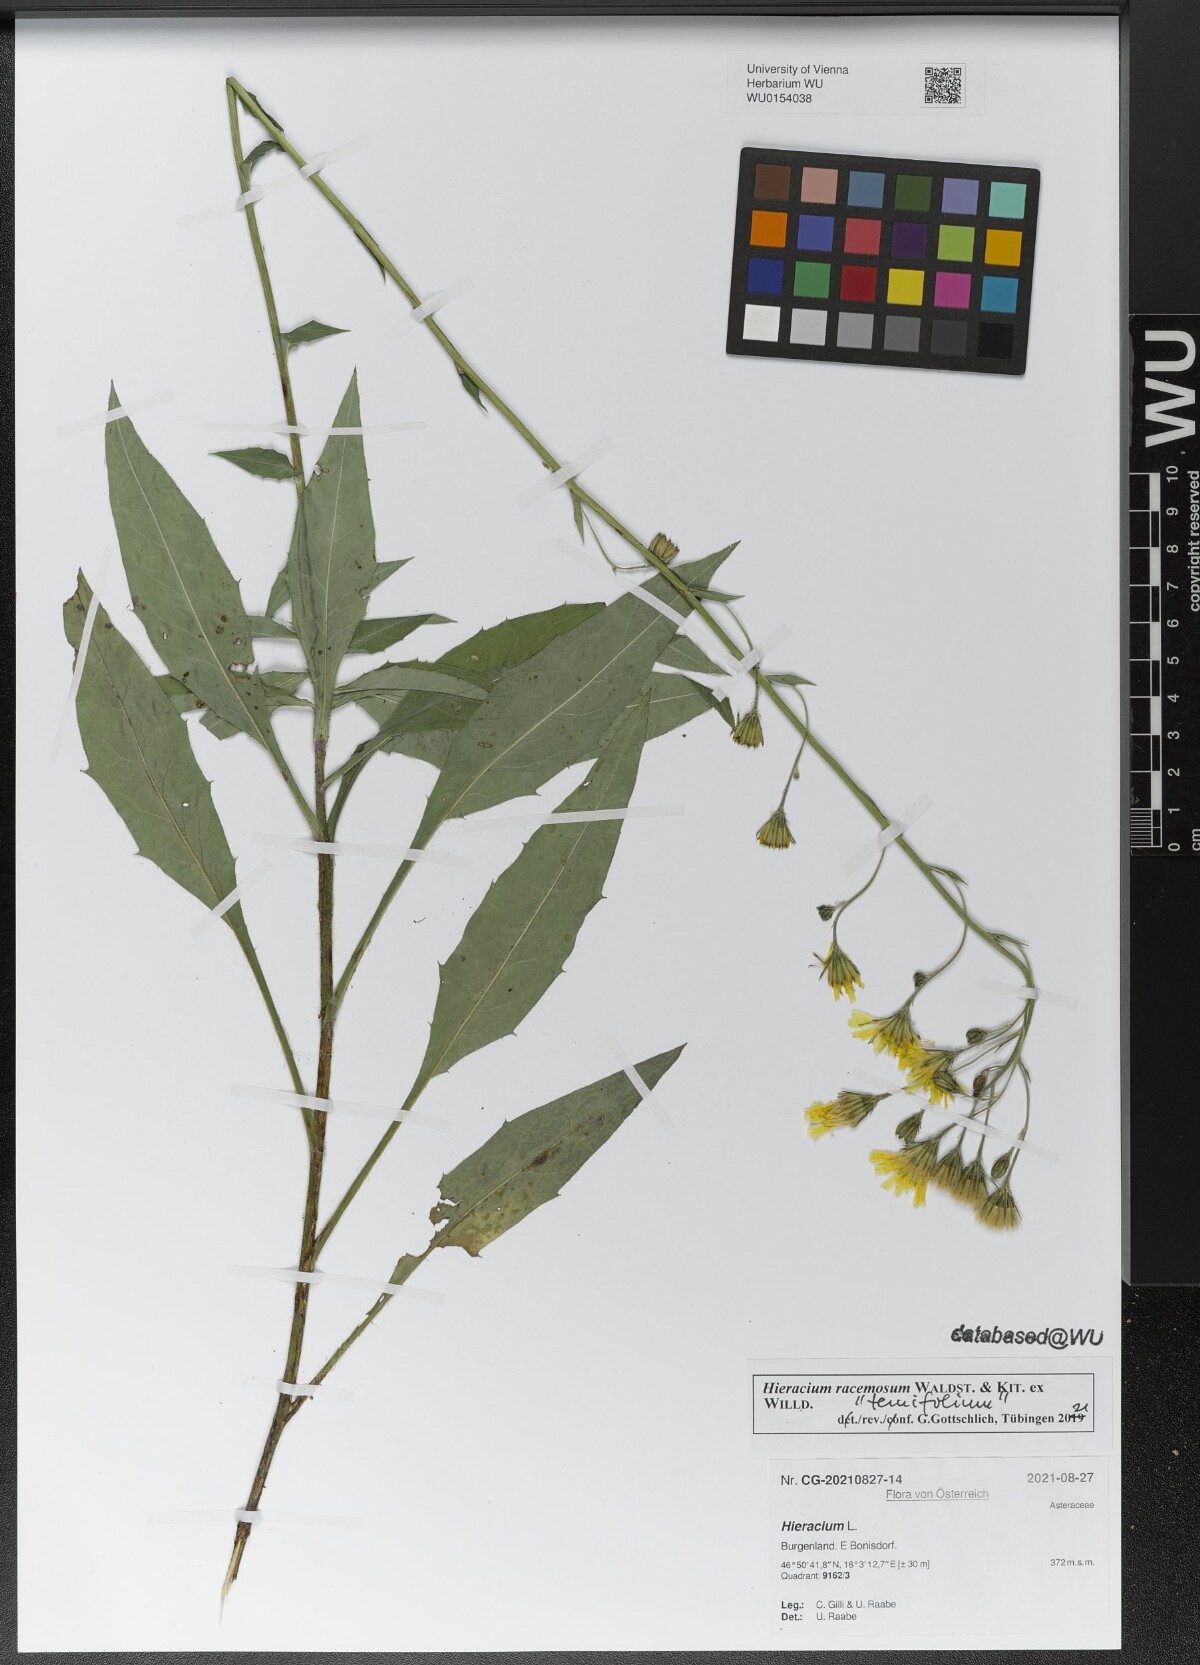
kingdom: Plantae
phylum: Tracheophyta
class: Magnoliopsida
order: Asterales
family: Asteraceae
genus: Hieracium
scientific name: Hieracium racemosum
